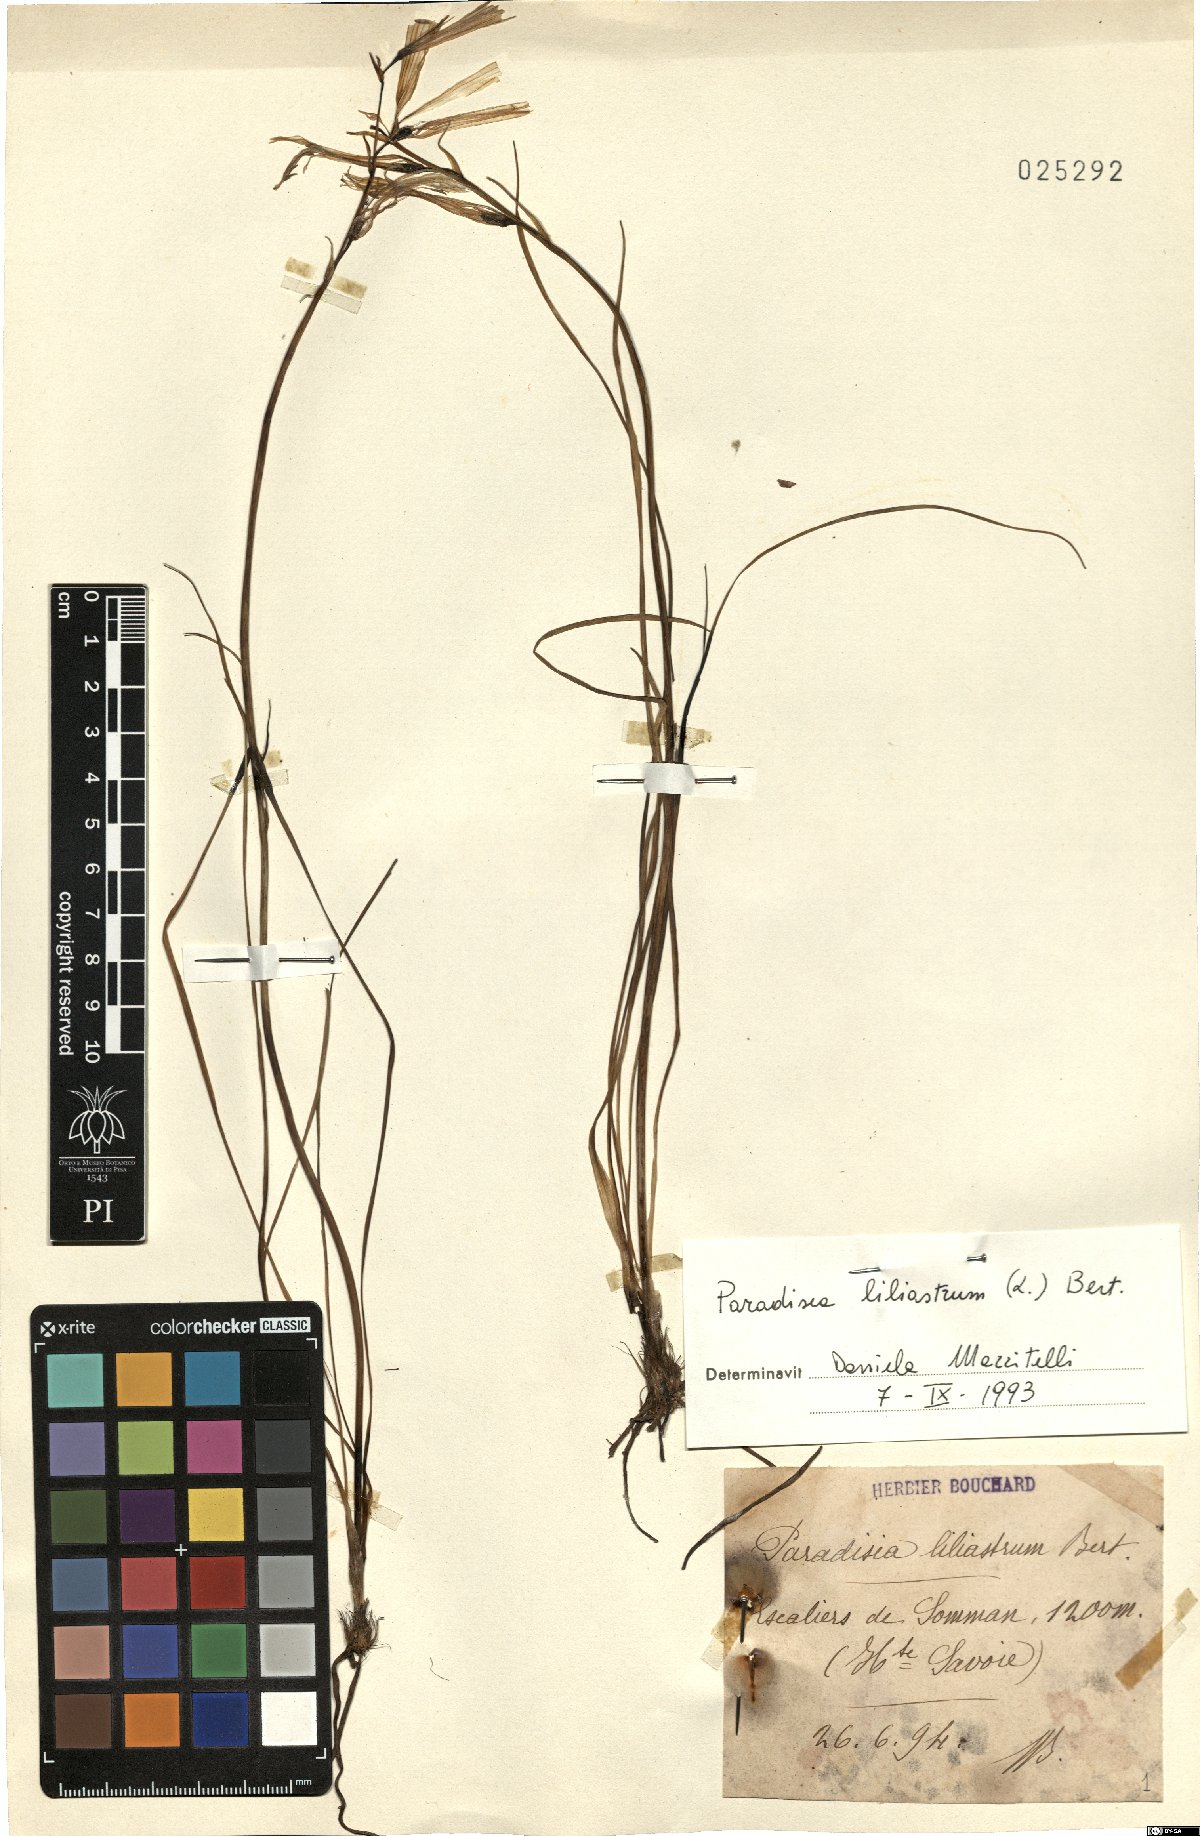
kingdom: Plantae
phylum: Tracheophyta
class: Liliopsida
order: Asparagales
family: Asparagaceae
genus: Paradisea
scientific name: Paradisea liliastrum
